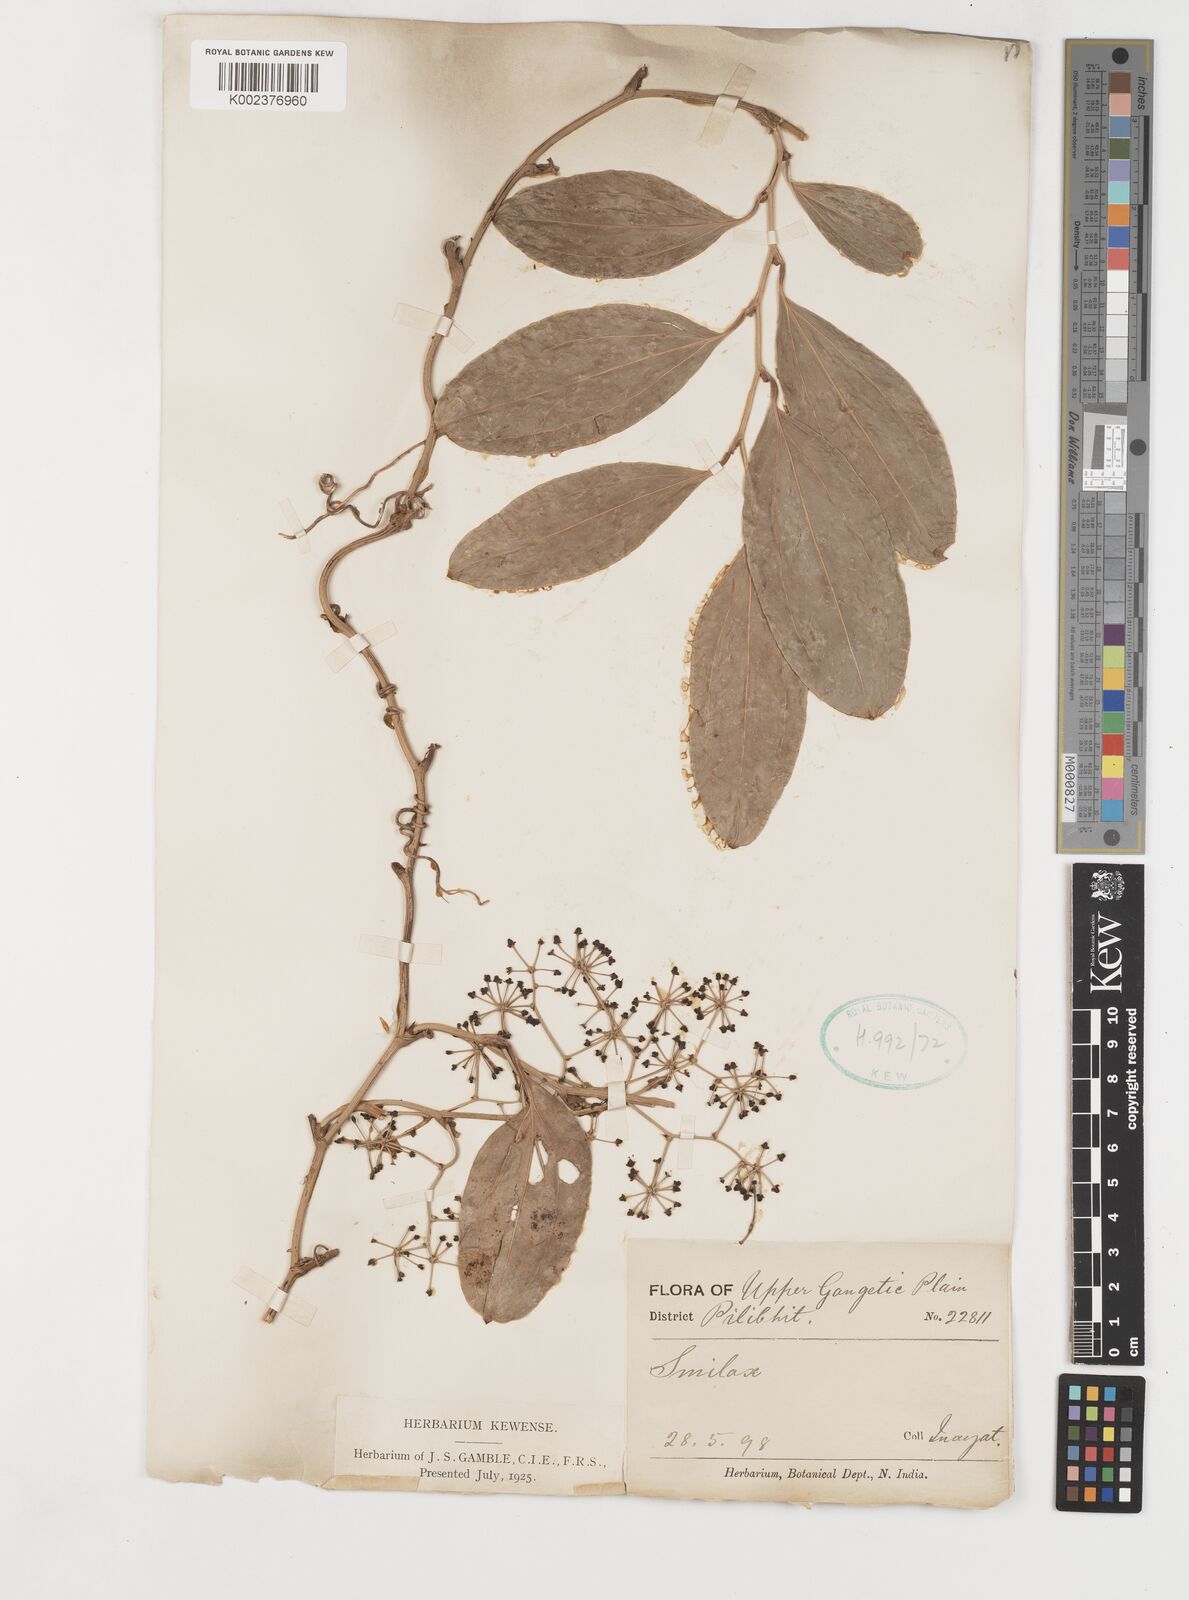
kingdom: Plantae
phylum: Tracheophyta
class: Liliopsida
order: Liliales
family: Smilacaceae
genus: Smilax
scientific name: Smilax
